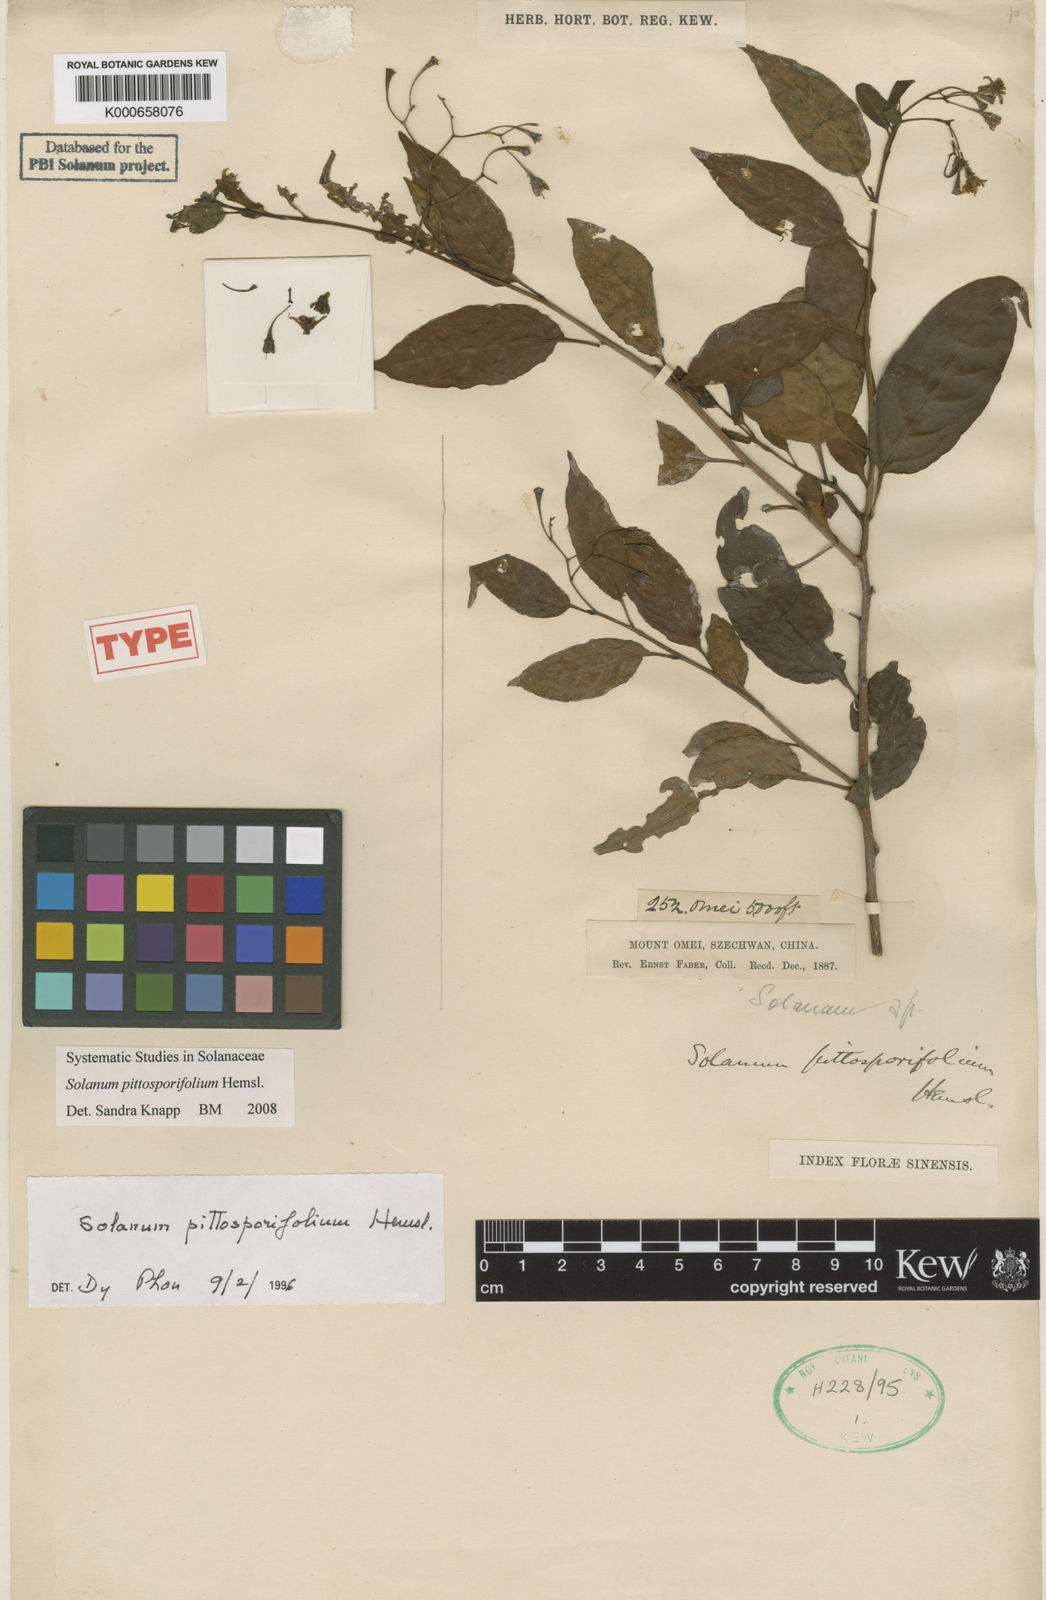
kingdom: Plantae
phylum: Tracheophyta
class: Magnoliopsida
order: Solanales
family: Solanaceae
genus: Solanum
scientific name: Solanum pittosporifolium
